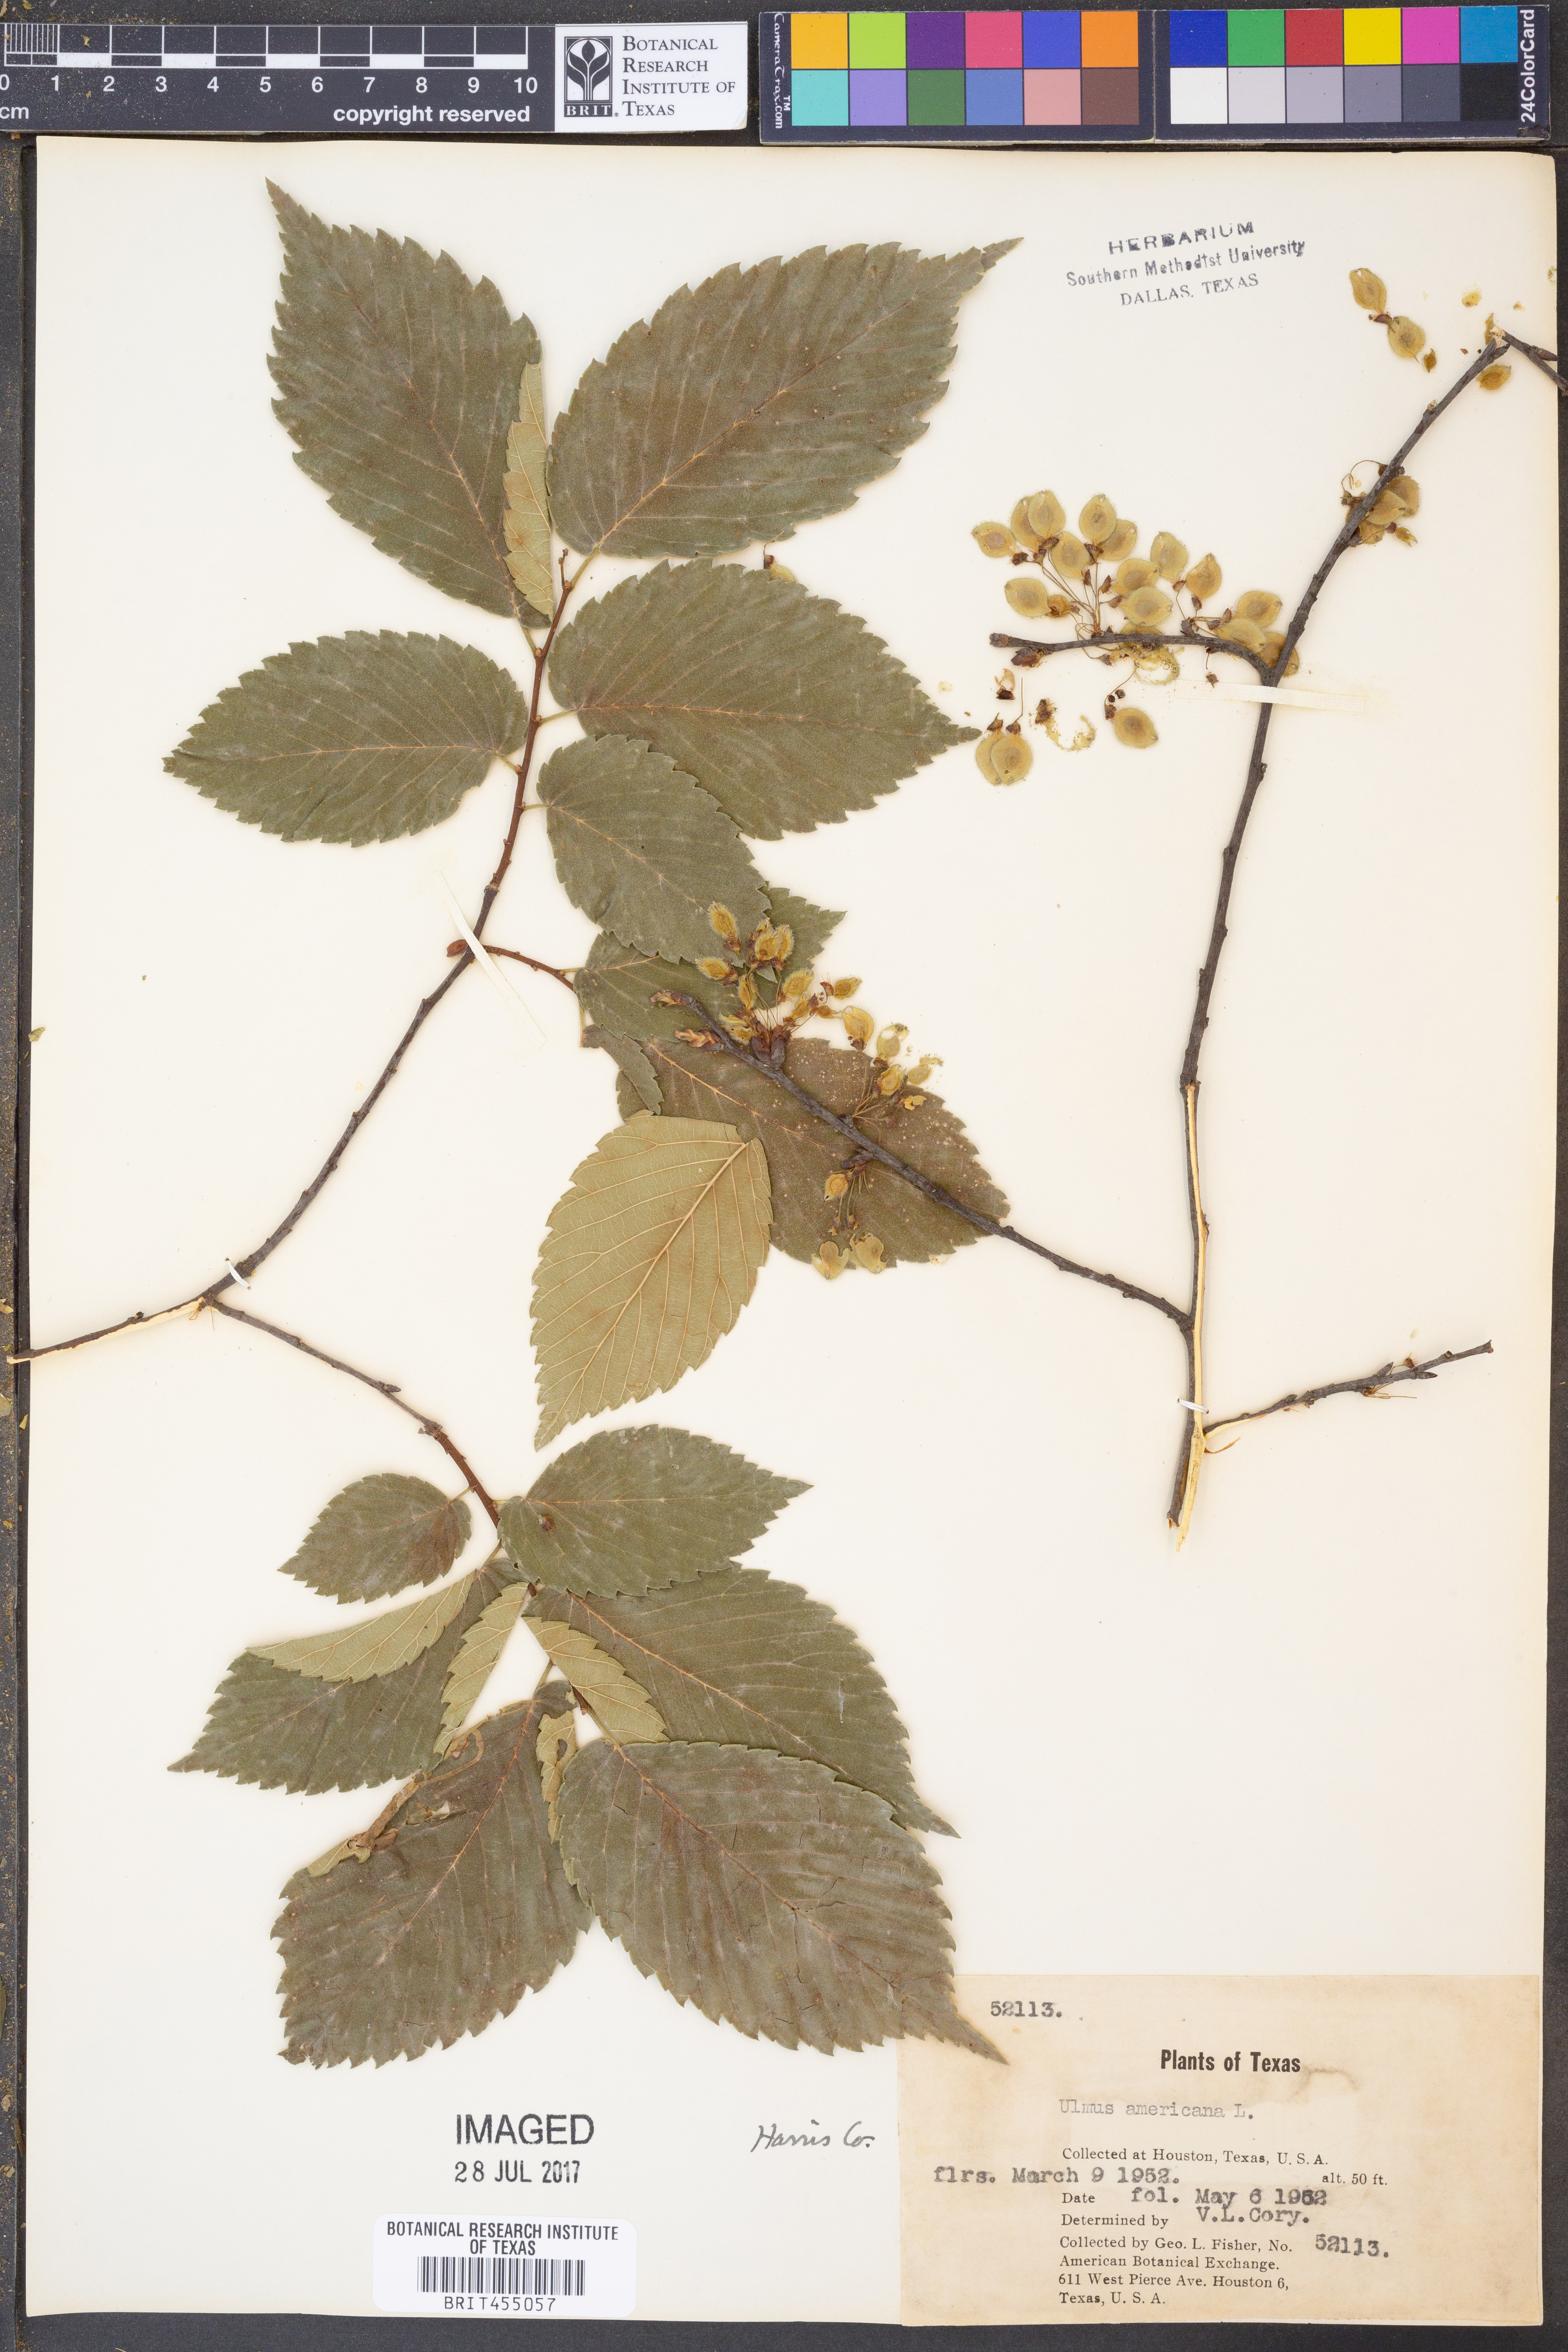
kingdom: Plantae
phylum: Tracheophyta
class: Magnoliopsida
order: Rosales
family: Ulmaceae
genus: Ulmus
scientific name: Ulmus americana
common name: American elm
